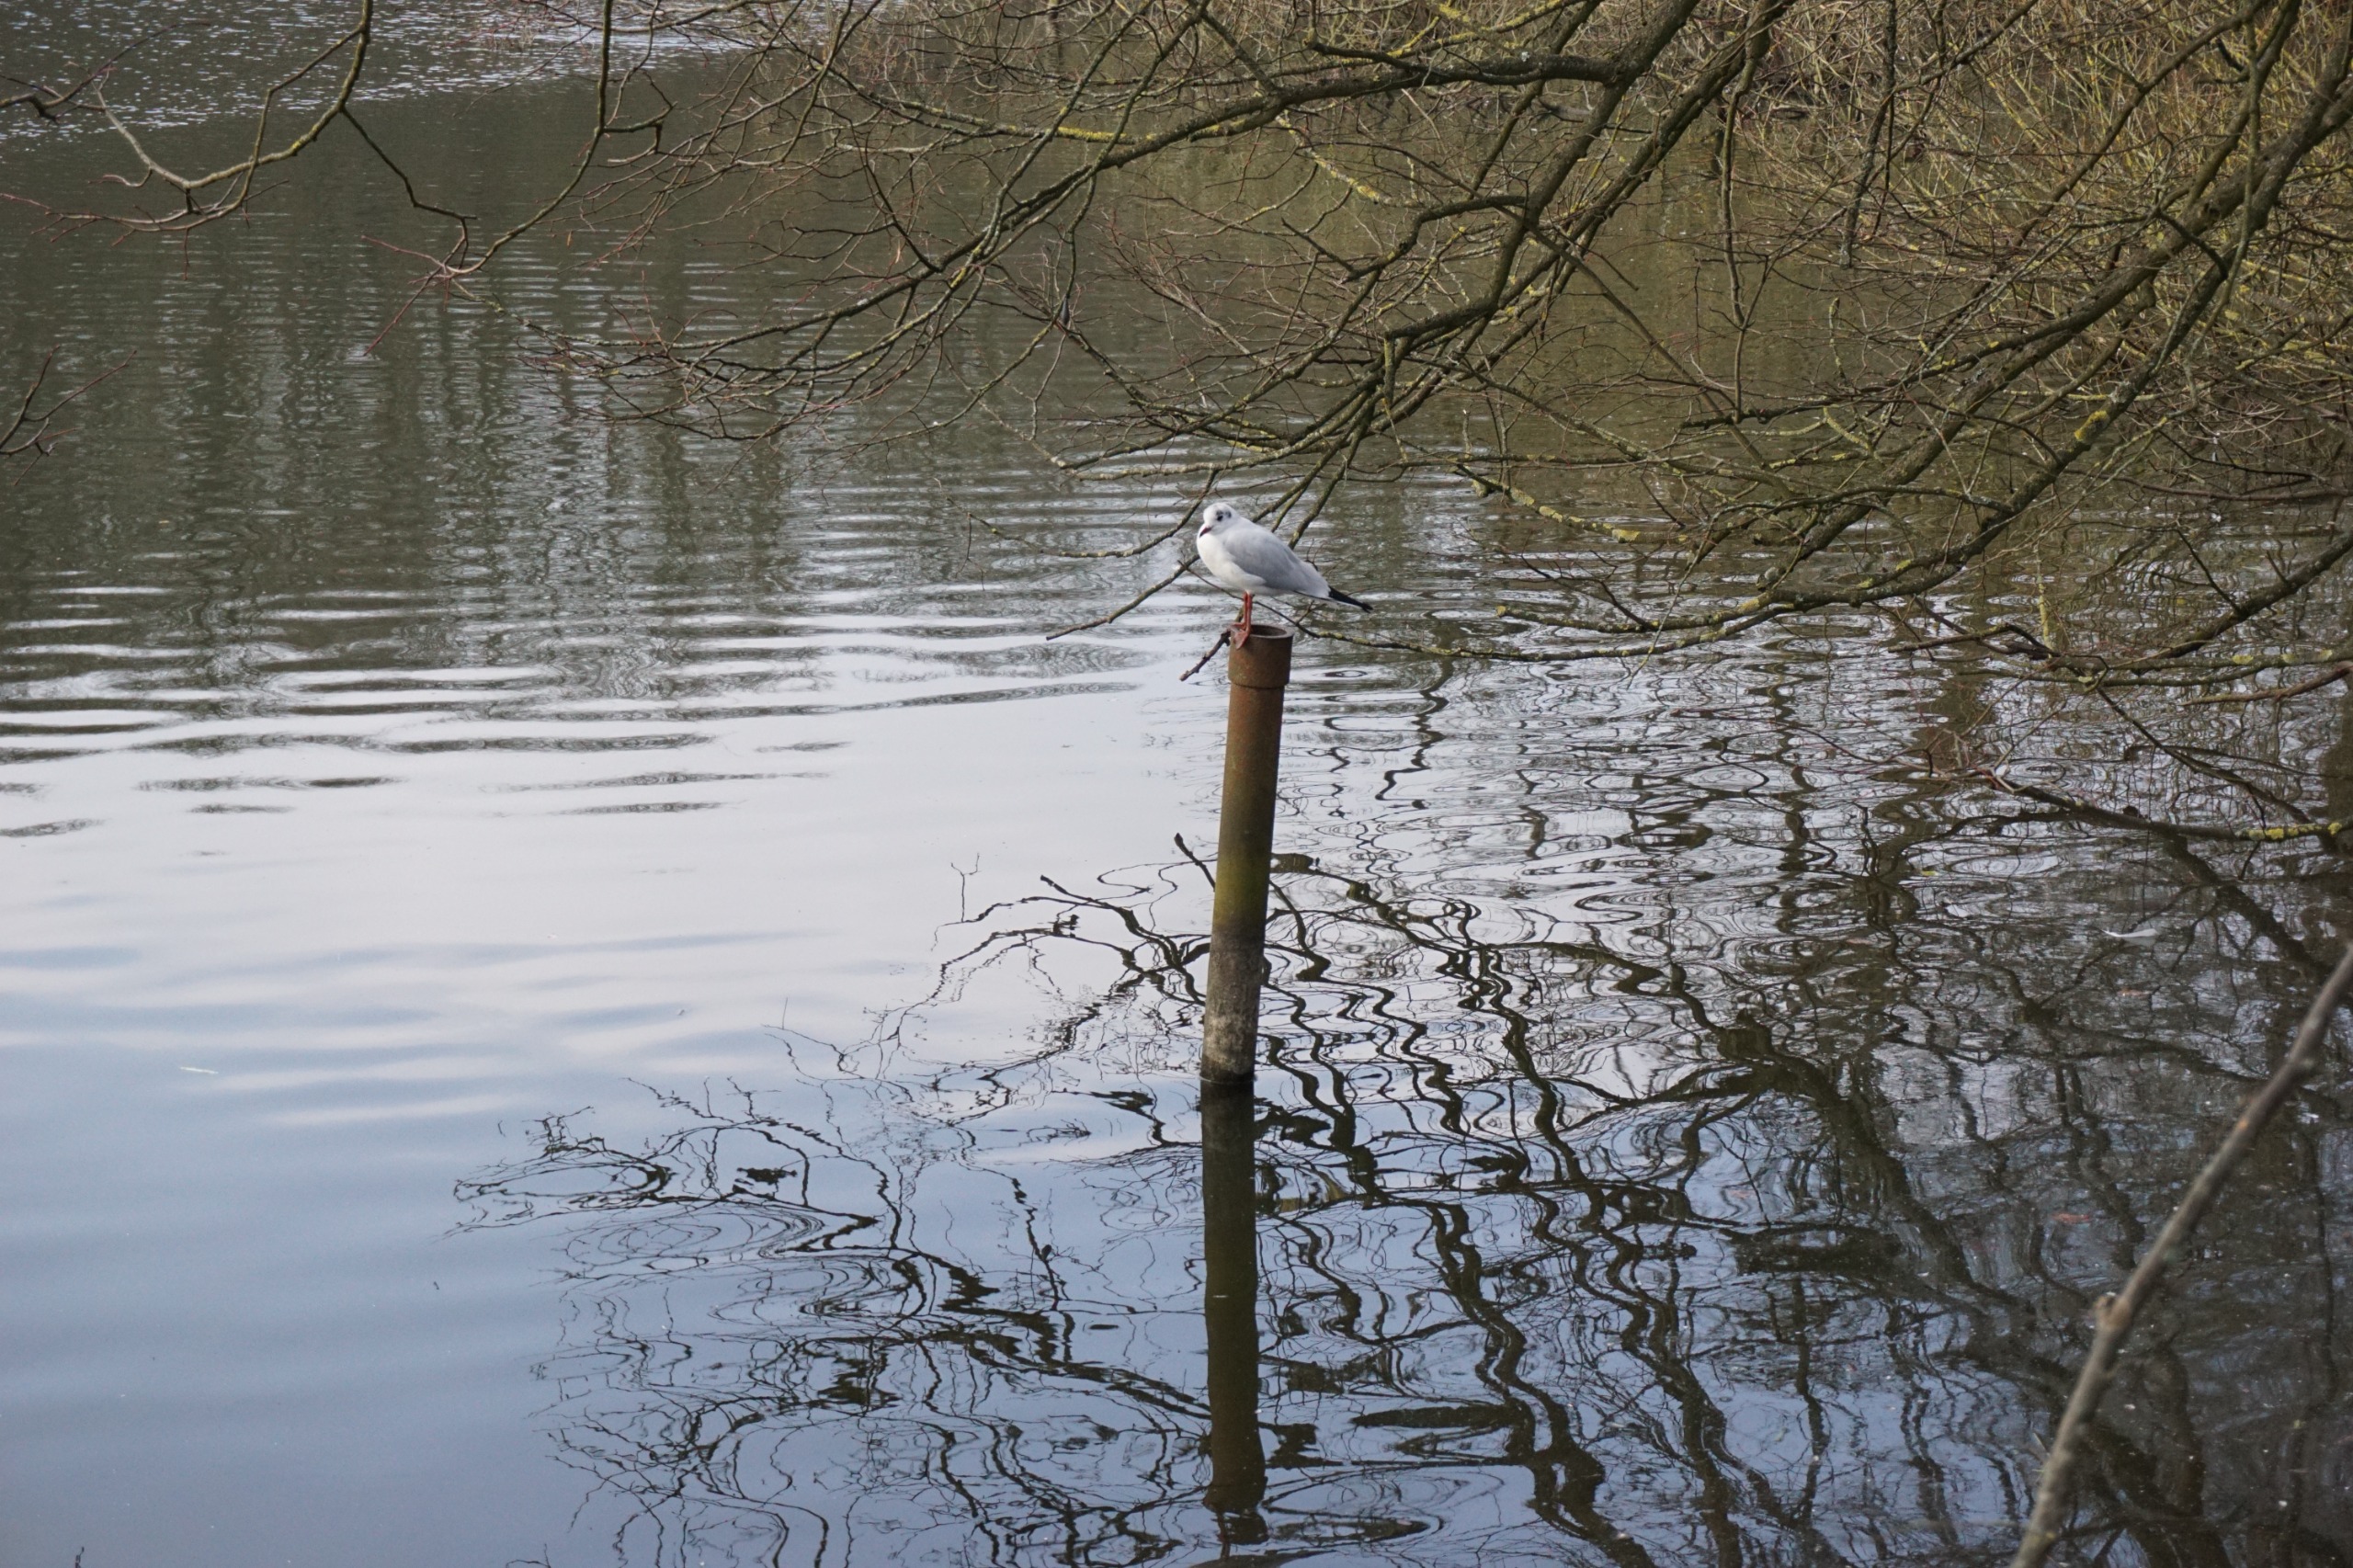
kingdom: Animalia
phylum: Chordata
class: Aves
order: Charadriiformes
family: Laridae
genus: Chroicocephalus
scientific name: Chroicocephalus ridibundus
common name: Hættemåge
